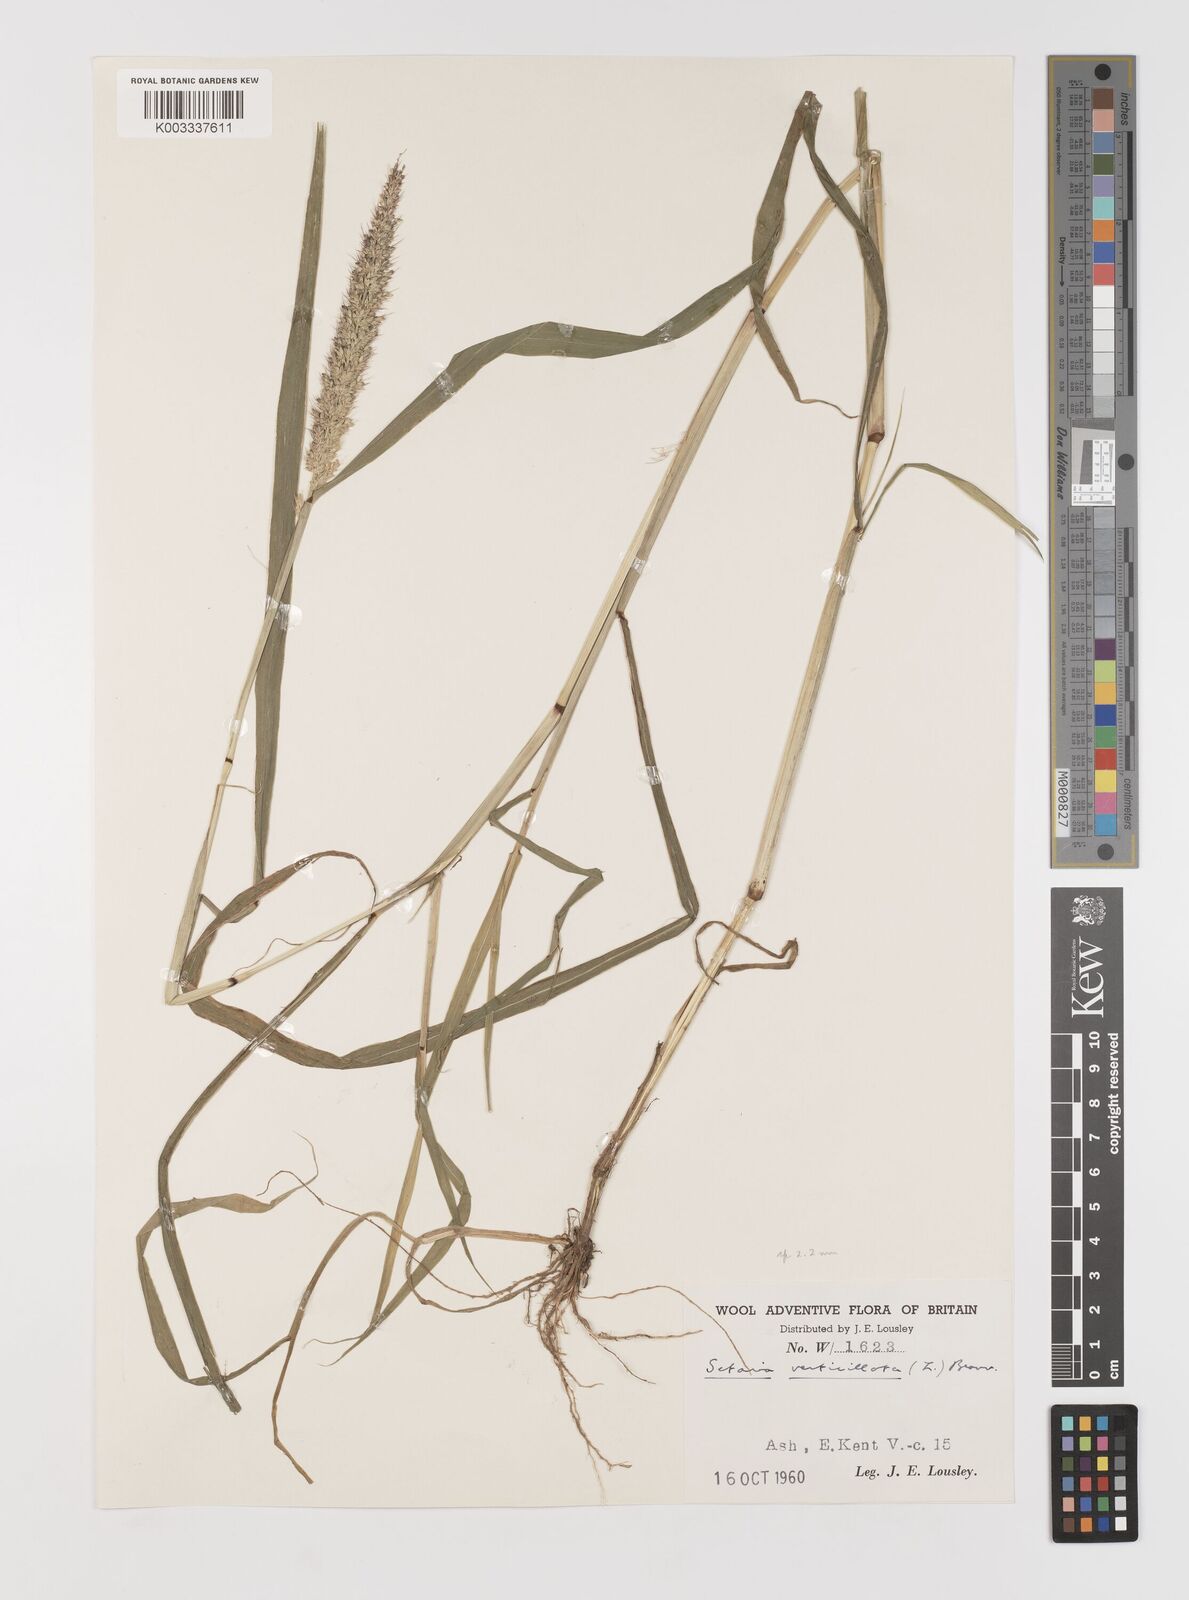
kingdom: Plantae
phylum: Tracheophyta
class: Liliopsida
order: Poales
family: Poaceae
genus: Setaria
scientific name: Setaria verticillata
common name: Hooked bristlegrass
